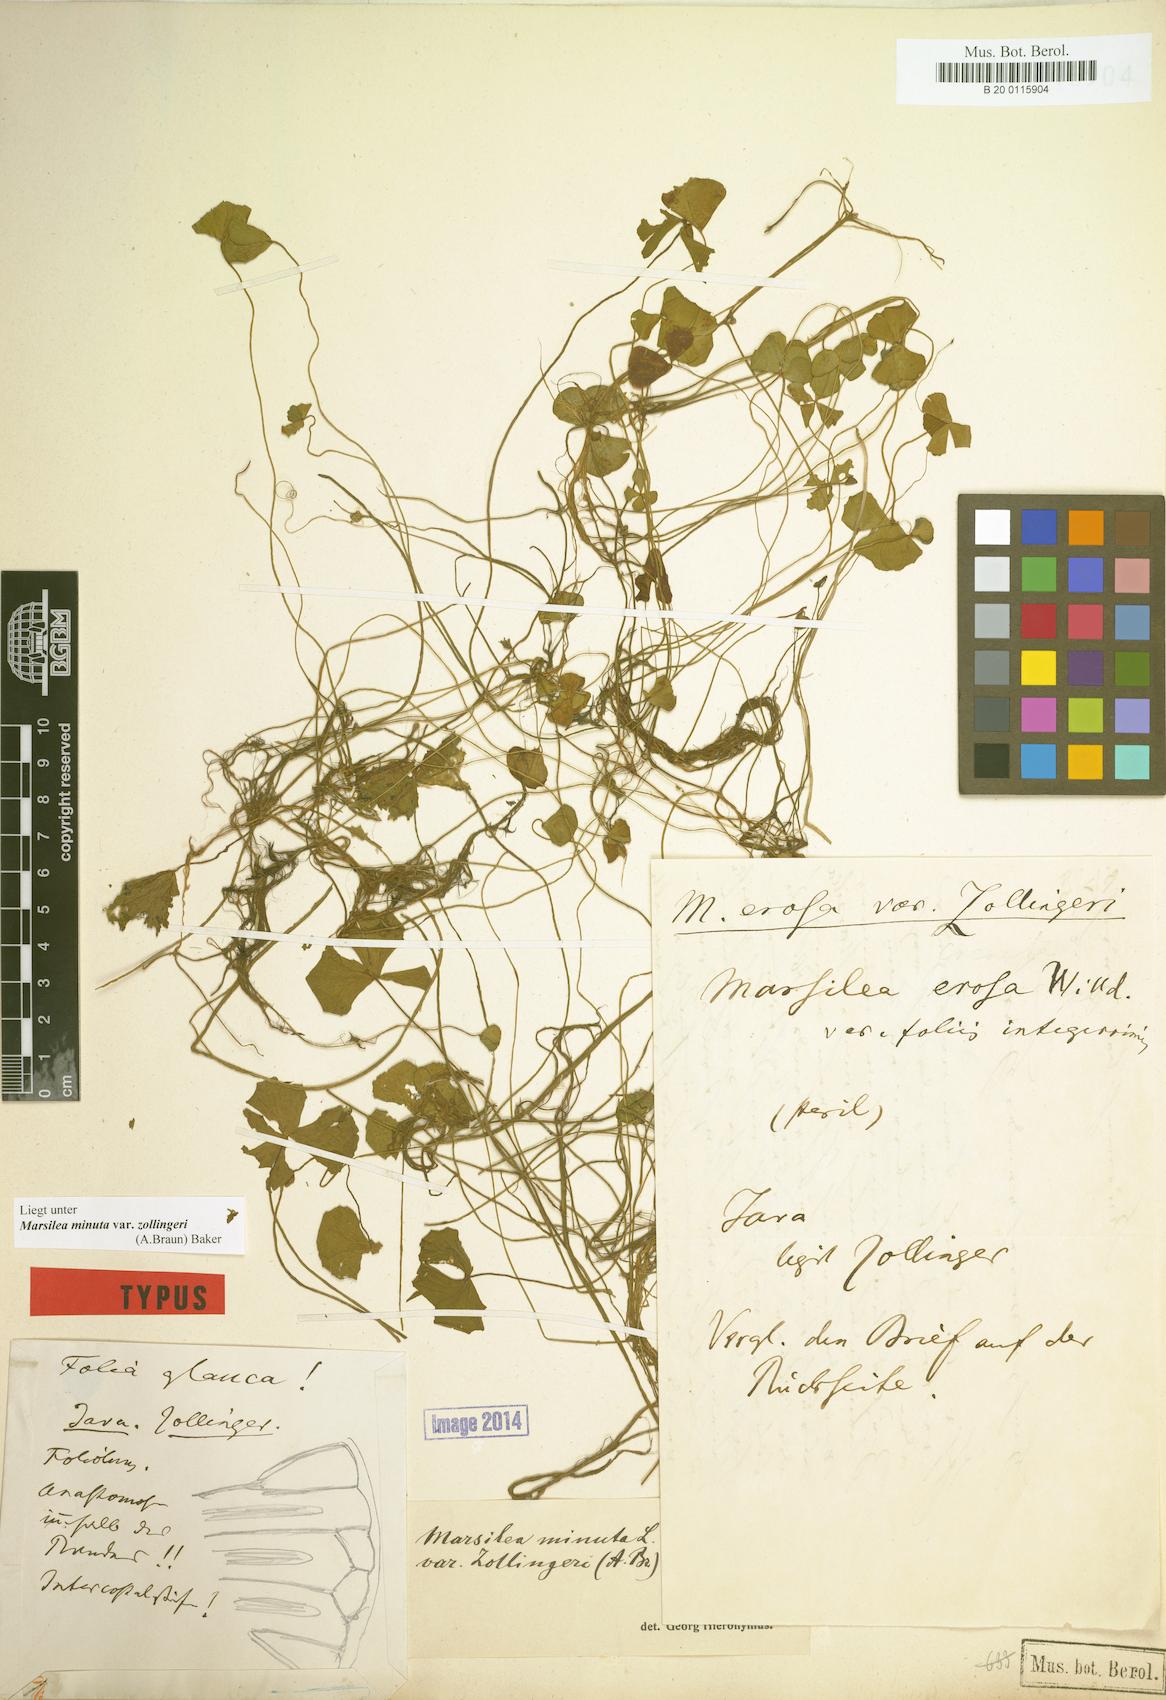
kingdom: Plantae
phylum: Tracheophyta
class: Polypodiopsida
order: Salviniales
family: Marsileaceae
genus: Marsilea
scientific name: Marsilea minuta
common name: Dwarf waterclover
